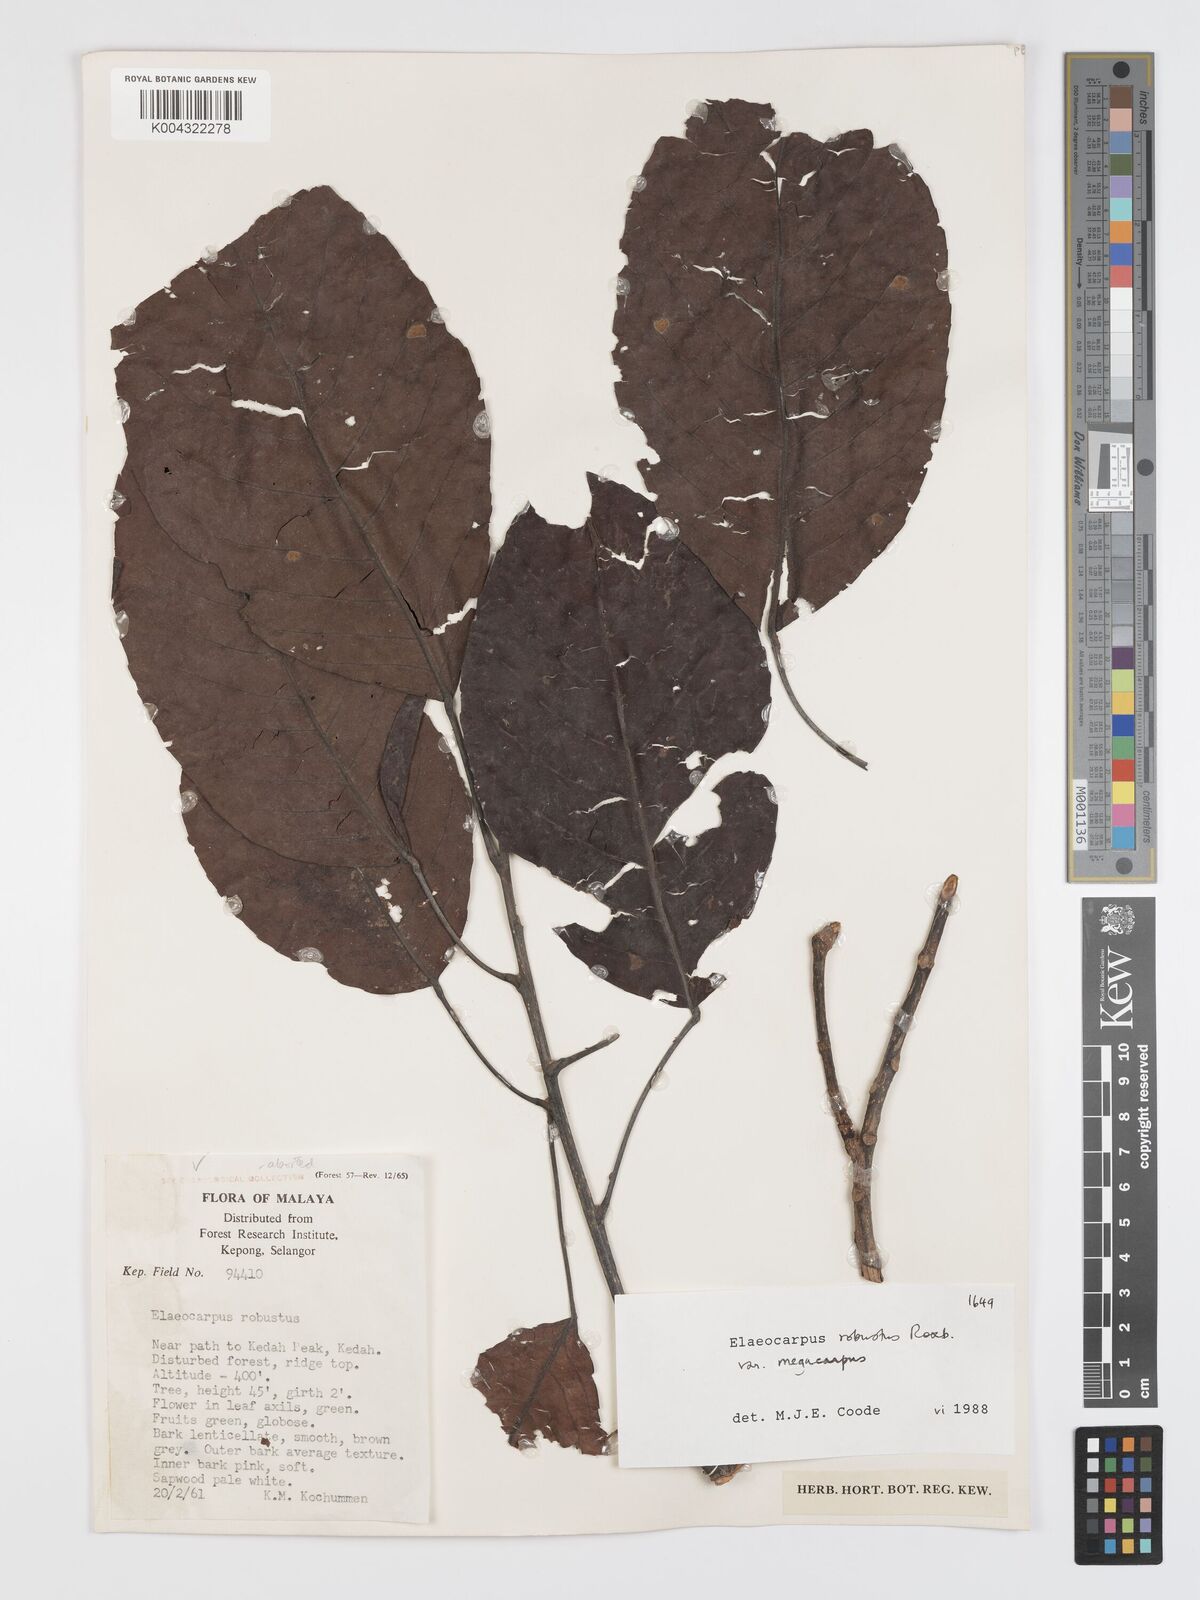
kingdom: Plantae
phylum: Tracheophyta
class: Magnoliopsida
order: Oxalidales
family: Elaeocarpaceae
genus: Elaeocarpus
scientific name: Elaeocarpus robustus
